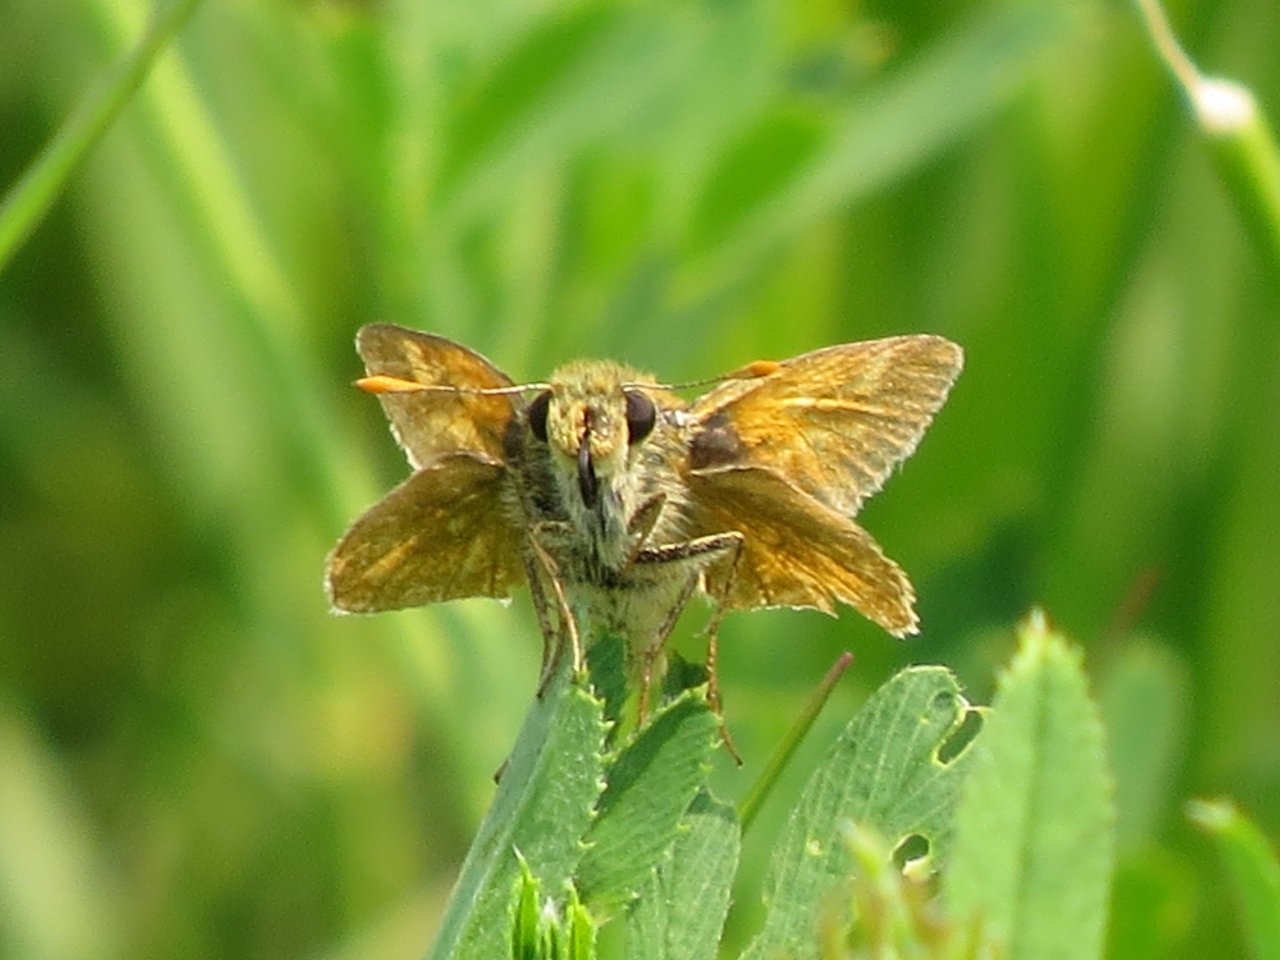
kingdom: Animalia
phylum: Arthropoda
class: Insecta
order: Lepidoptera
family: Hesperiidae
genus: Hesperia
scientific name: Hesperia comma
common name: Western Branded Skipper
